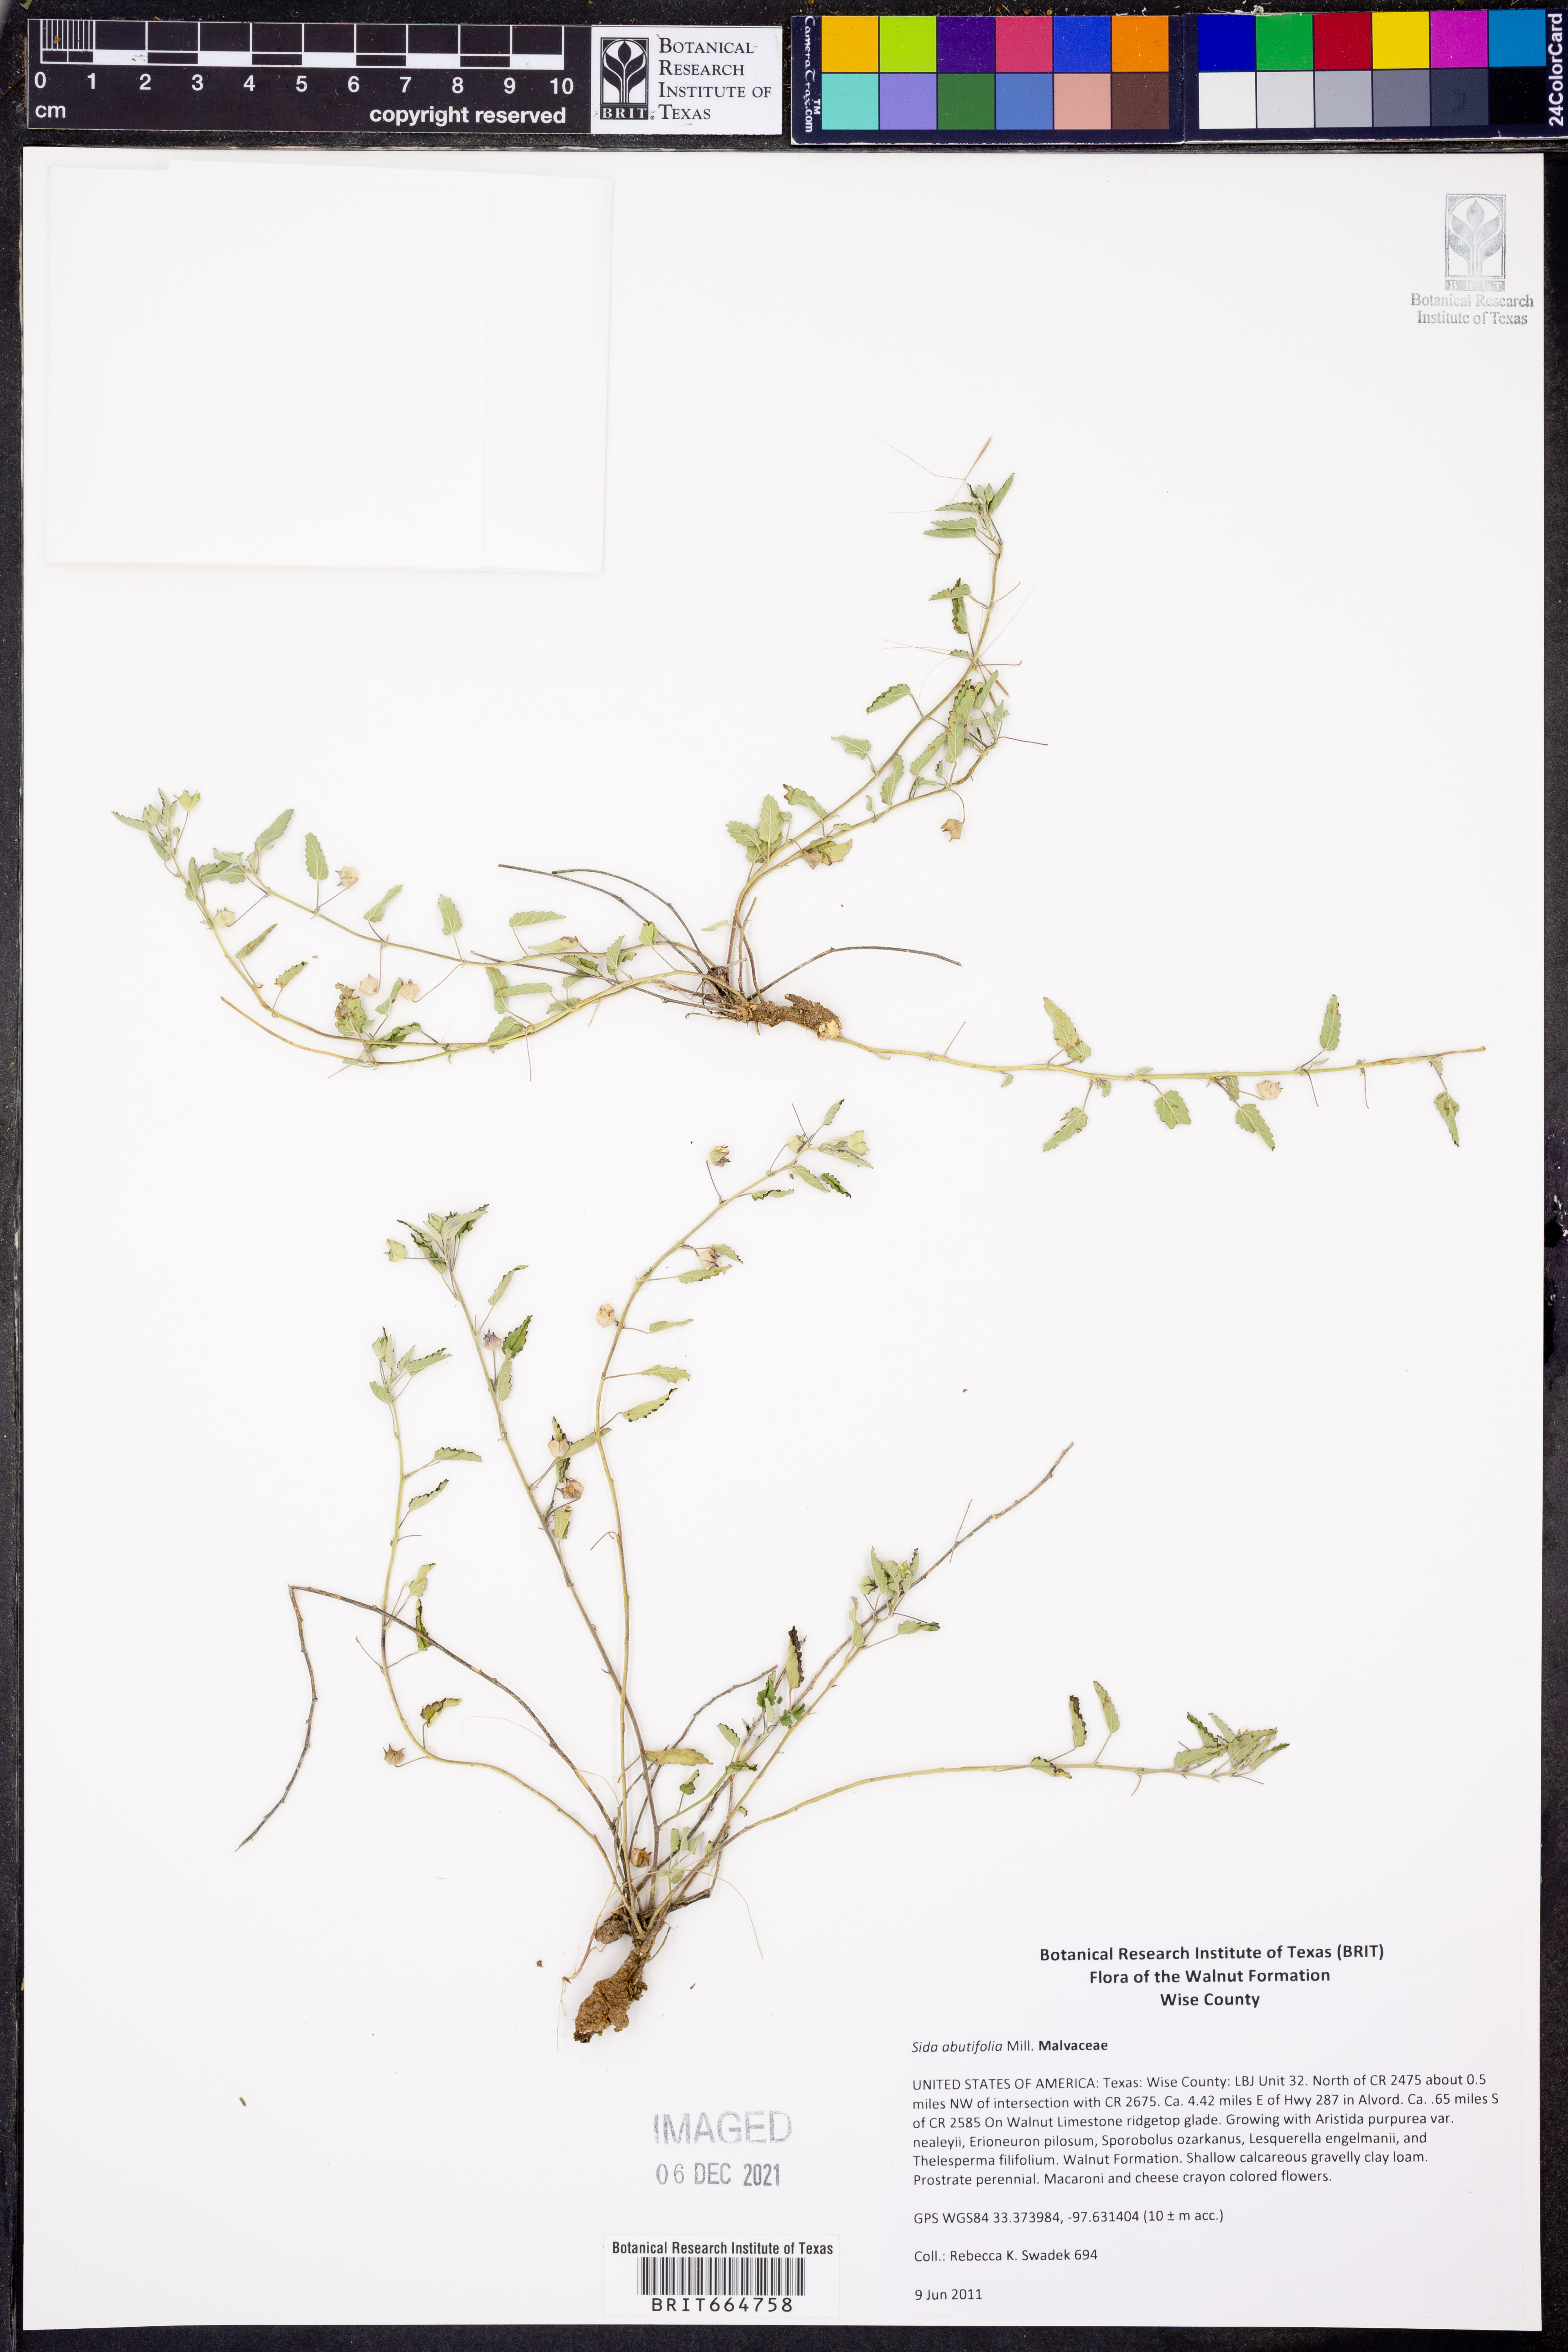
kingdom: Plantae
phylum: Tracheophyta
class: Magnoliopsida
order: Malvales
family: Malvaceae
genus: Sida
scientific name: Sida abutifolia
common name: Spreading fantails
